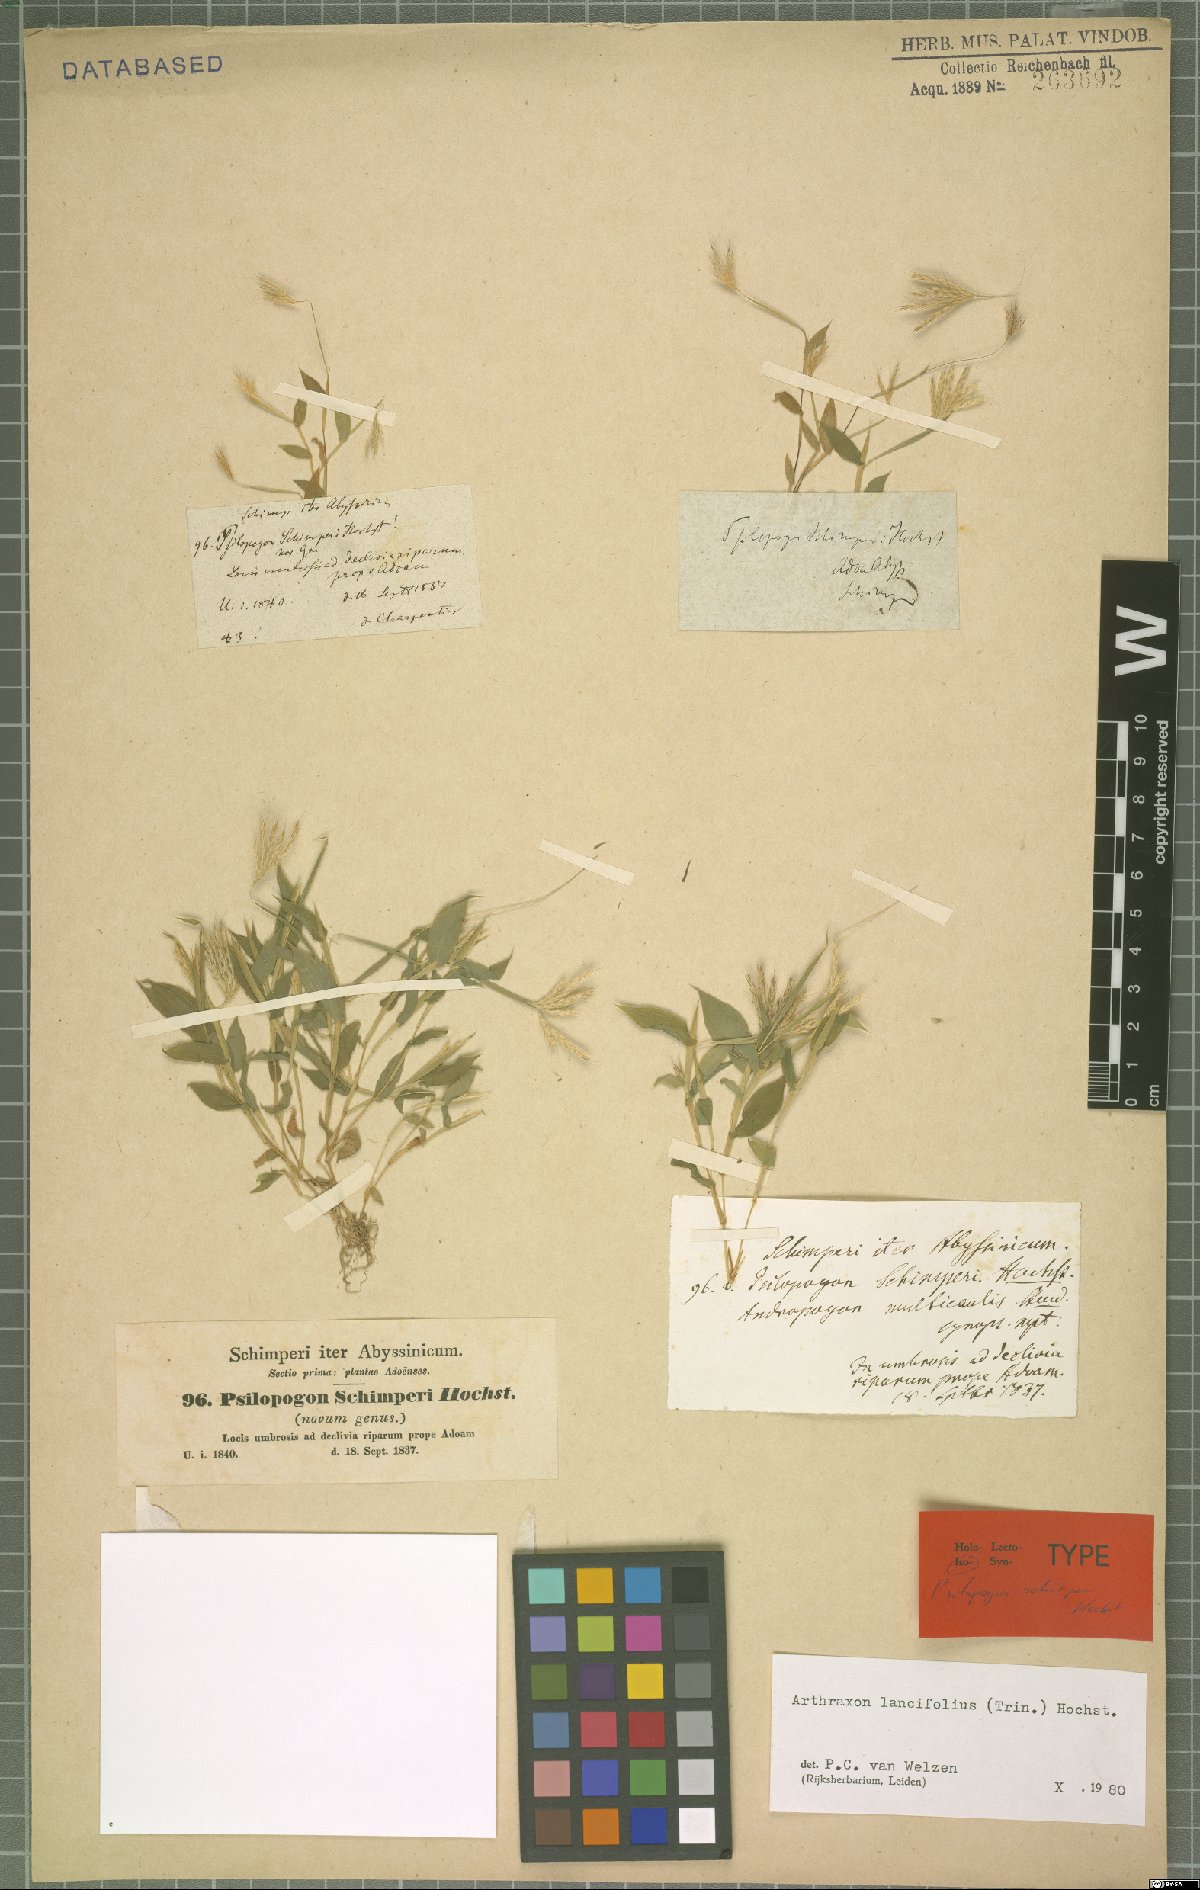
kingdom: Plantae
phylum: Tracheophyta
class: Liliopsida
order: Poales
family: Poaceae
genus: Arthraxon
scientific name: Arthraxon lancifolius
